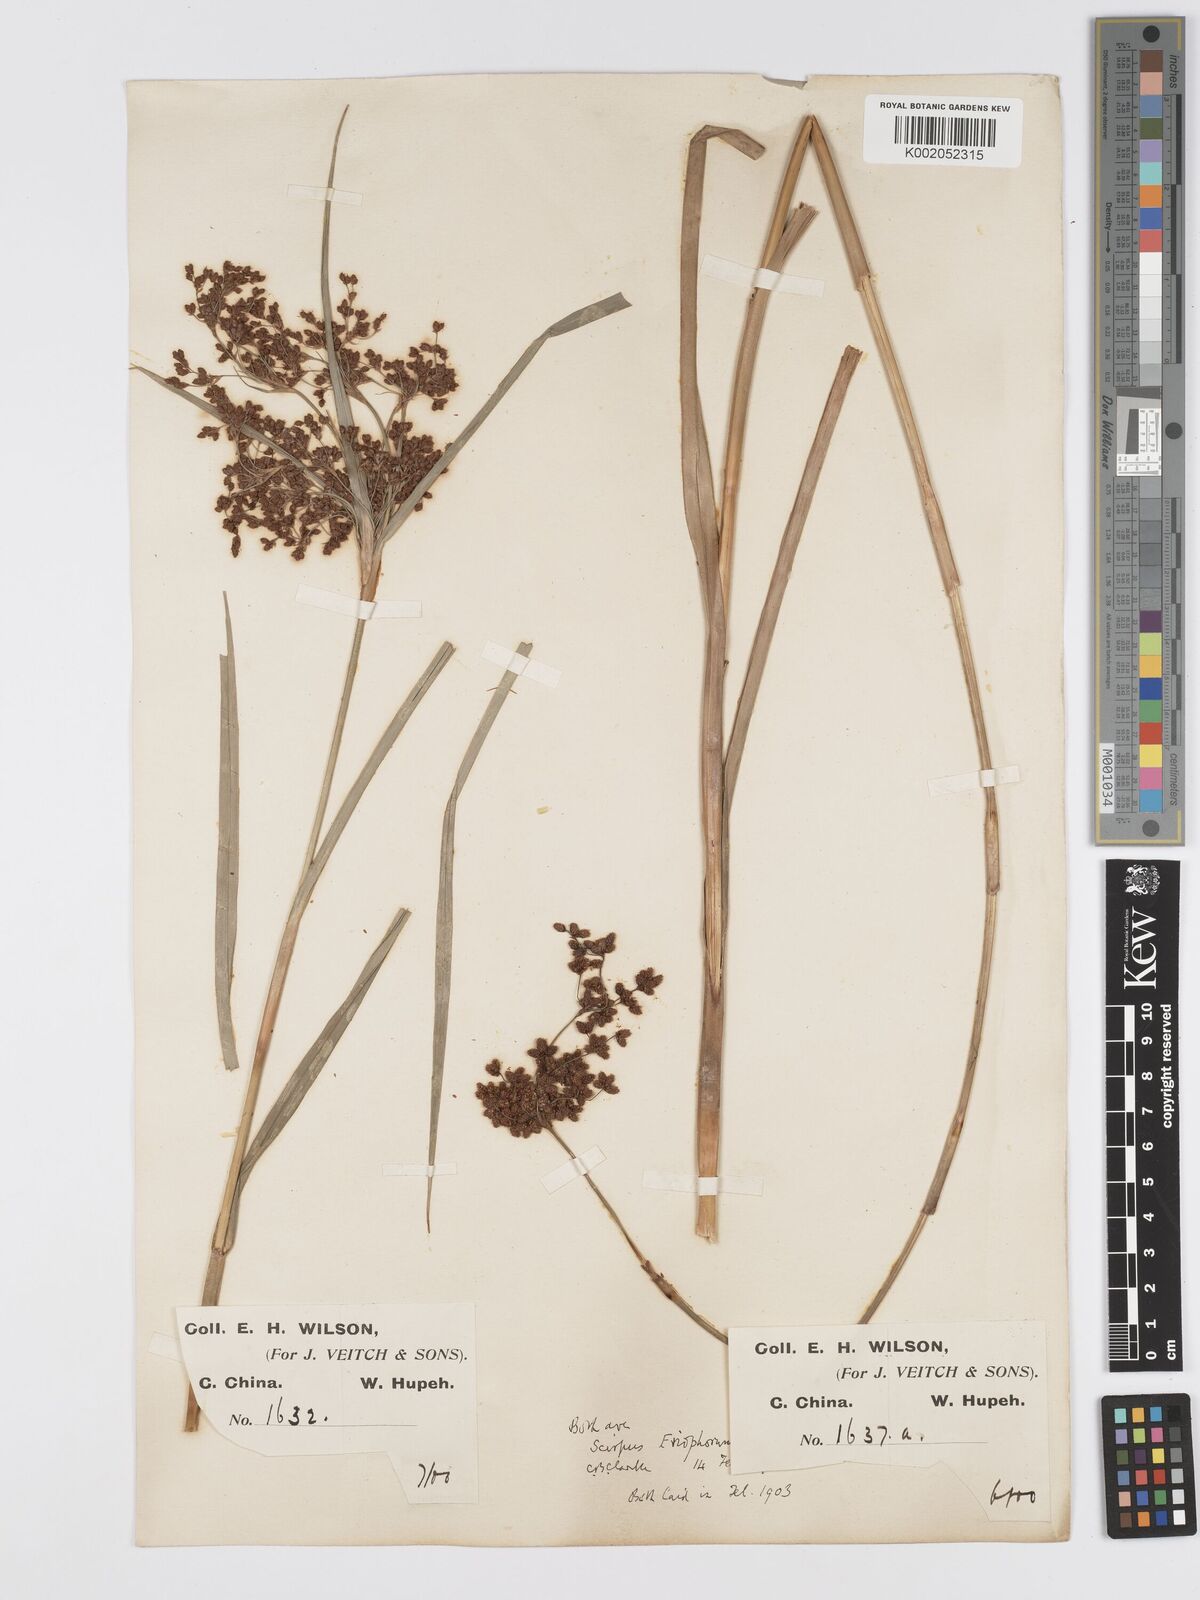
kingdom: Plantae
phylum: Tracheophyta
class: Liliopsida
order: Poales
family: Cyperaceae
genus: Scirpus
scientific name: Scirpus cyperinus
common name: Black-sheathed bulrush
